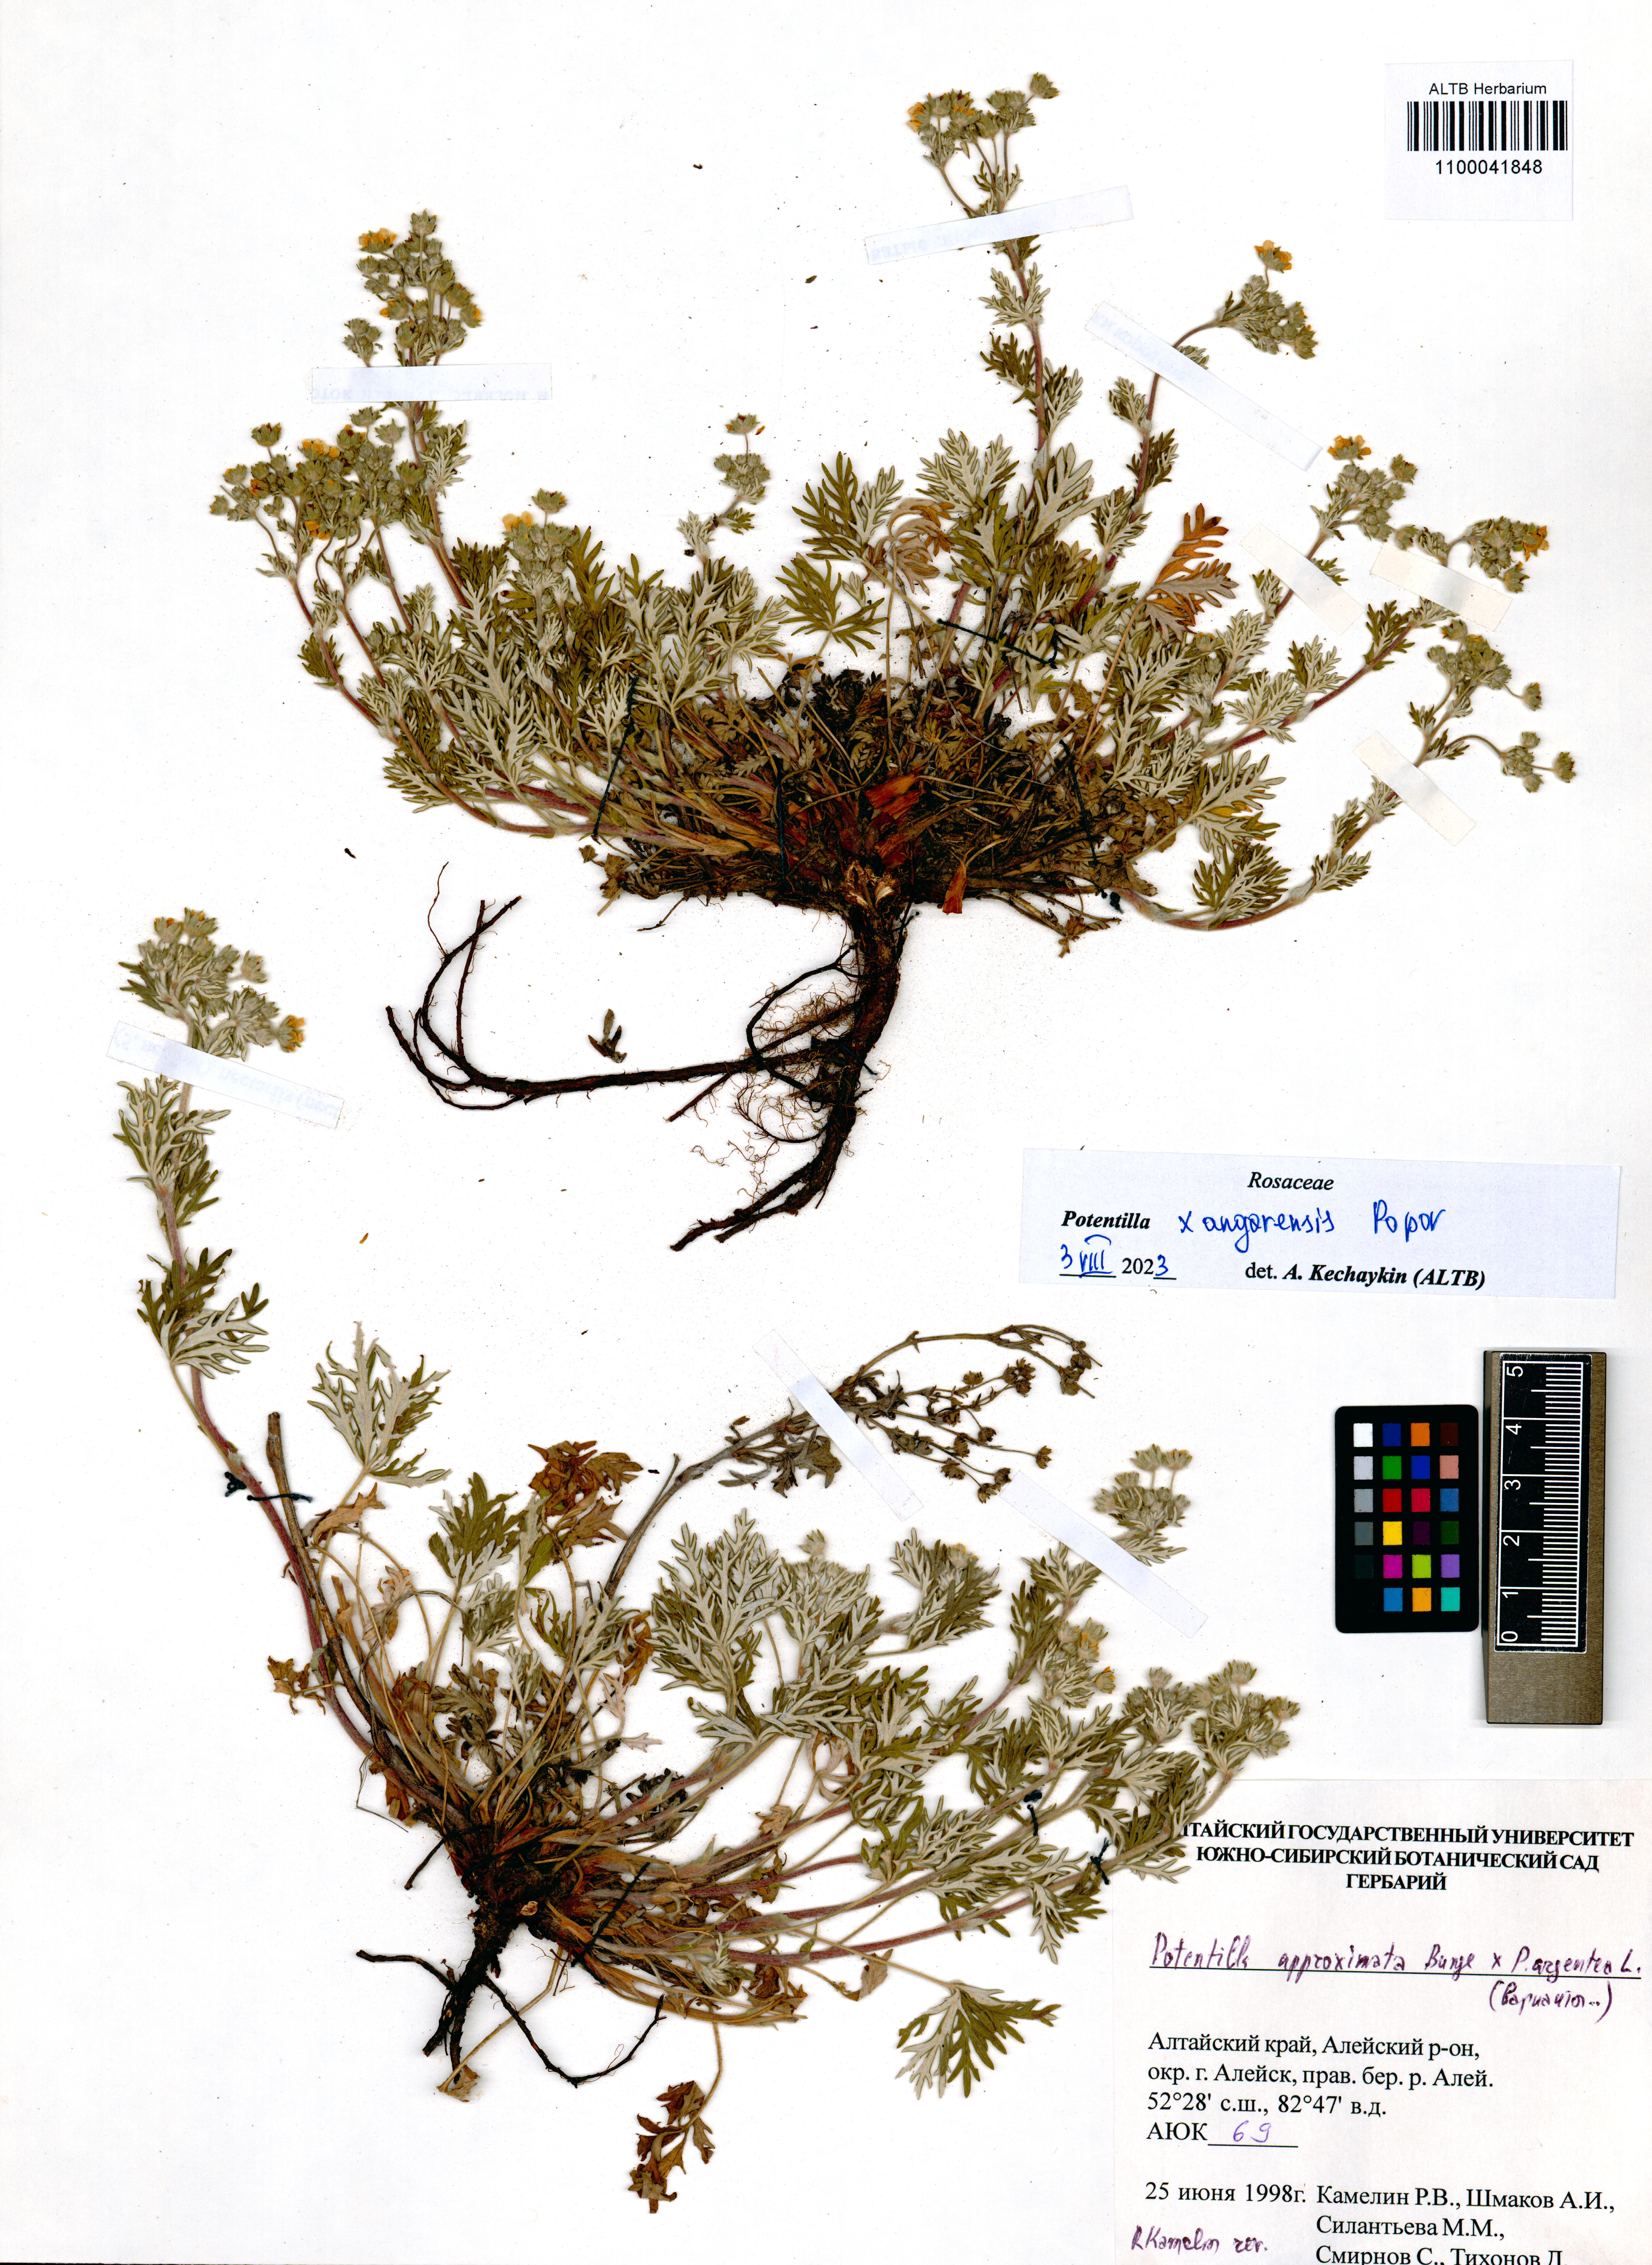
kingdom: Plantae
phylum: Tracheophyta
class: Magnoliopsida
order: Rosales
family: Rosaceae
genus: Potentilla
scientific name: Potentilla angarensis
